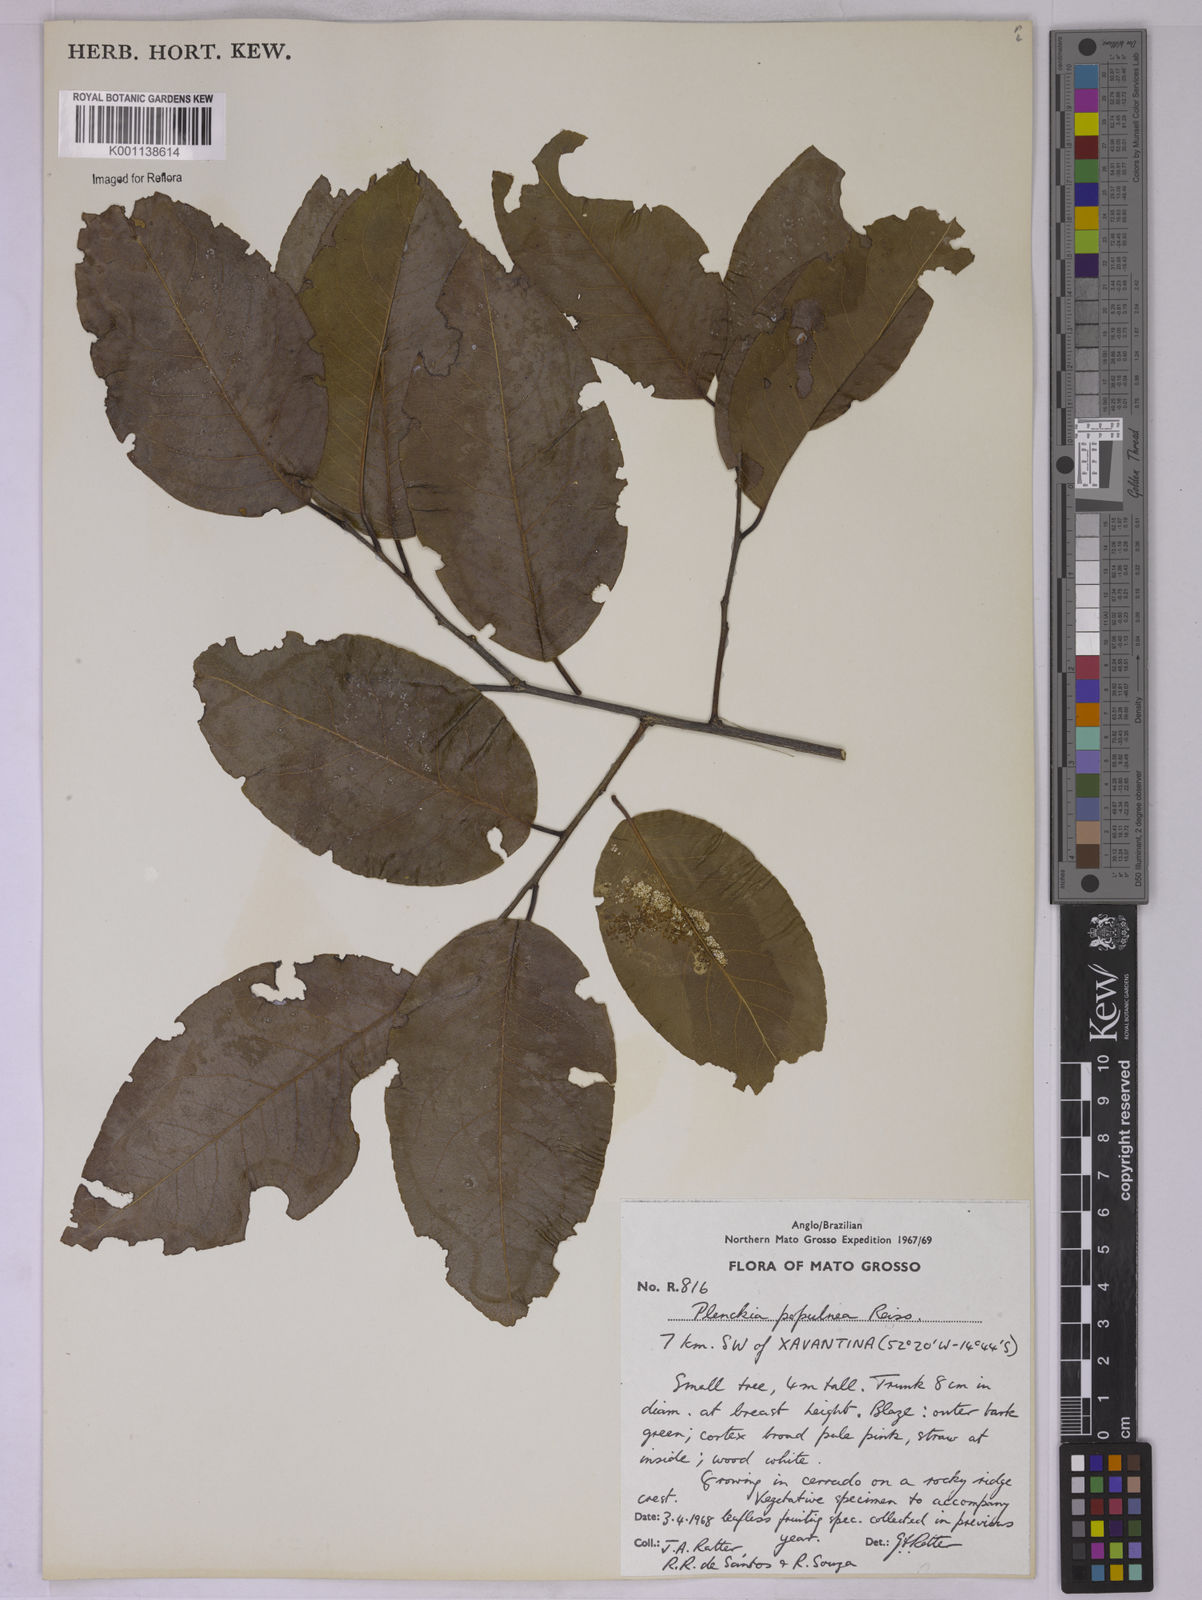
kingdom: Plantae
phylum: Tracheophyta
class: Magnoliopsida
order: Celastrales
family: Celastraceae
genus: Plenckia
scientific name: Plenckia populnea
